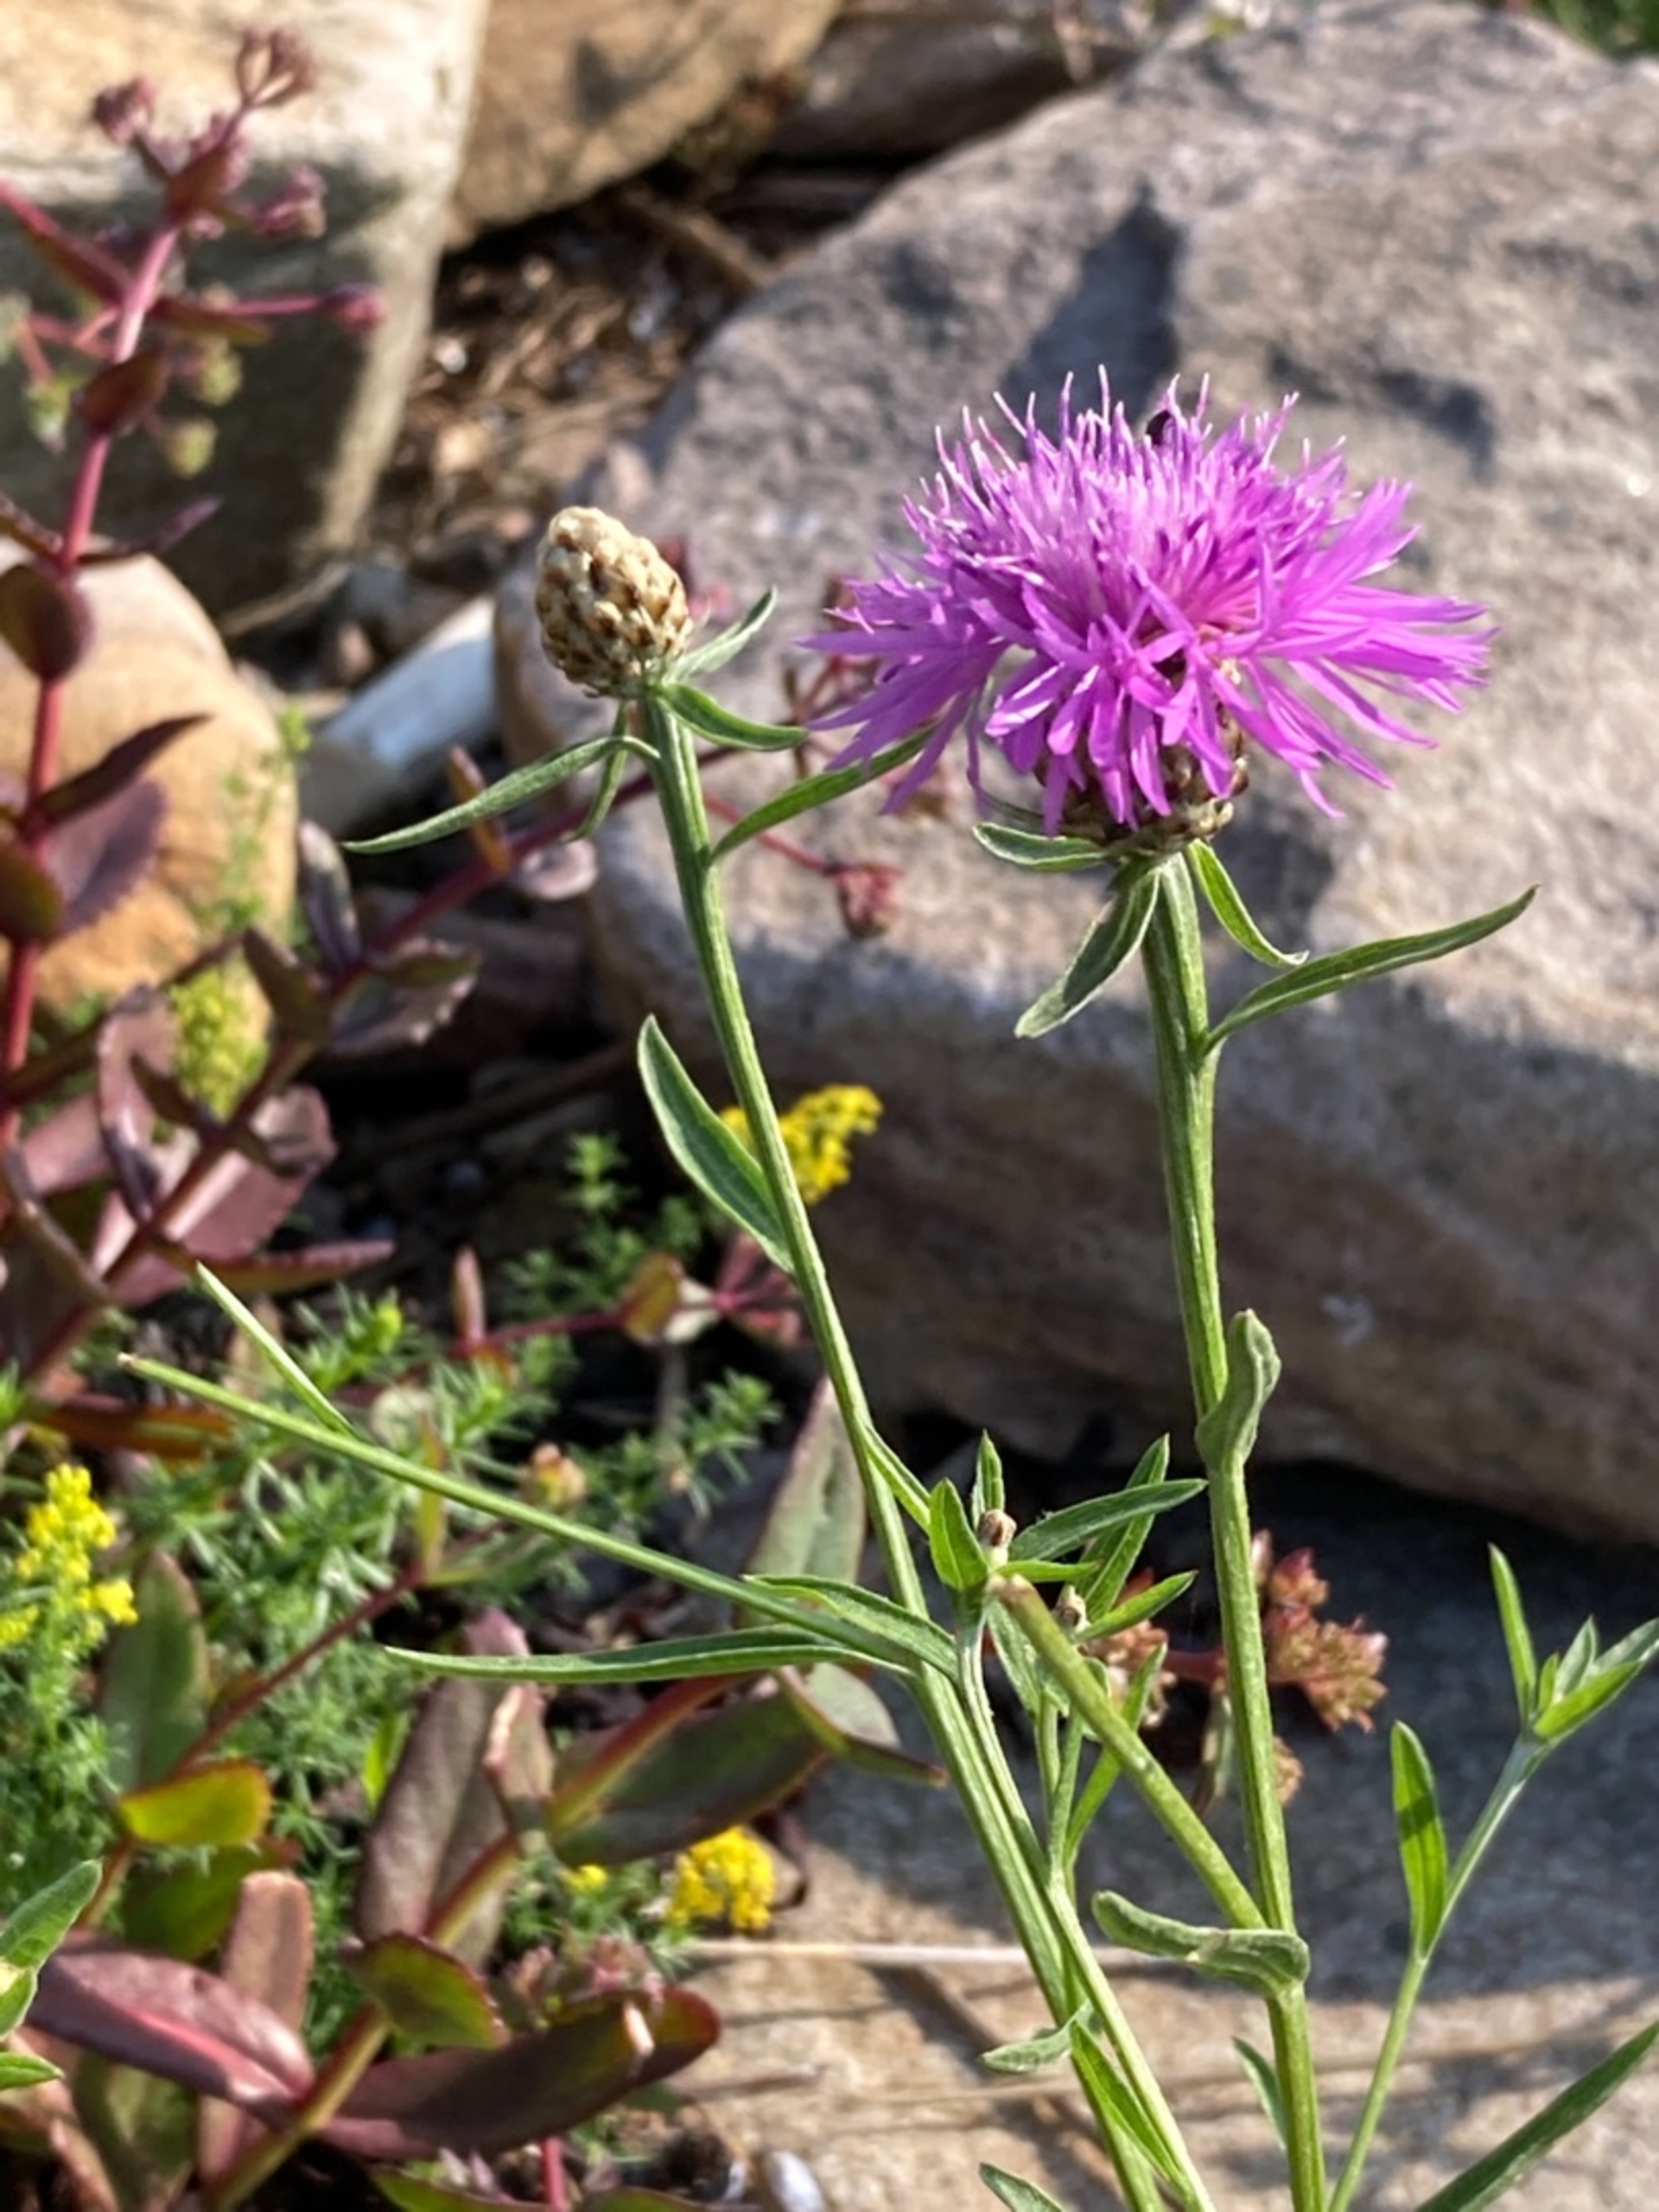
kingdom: Plantae
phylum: Tracheophyta
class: Magnoliopsida
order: Asterales
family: Asteraceae
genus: Centaurea
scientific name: Centaurea jacea
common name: Almindelig knopurt
